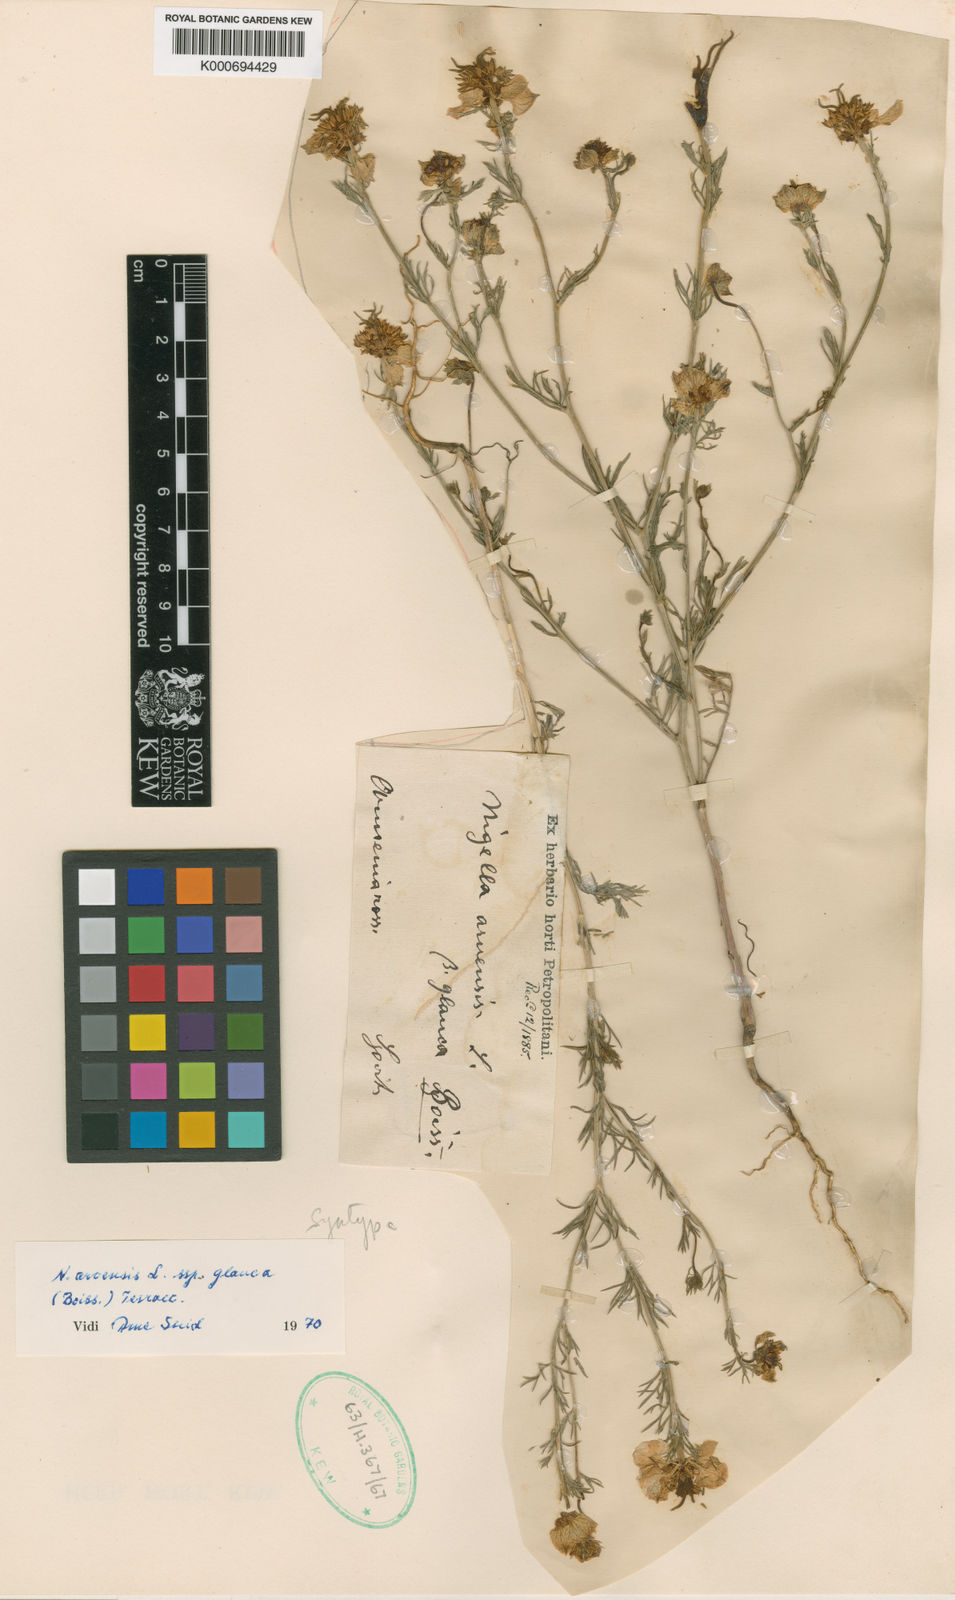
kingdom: Plantae
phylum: Tracheophyta
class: Magnoliopsida
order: Ranunculales
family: Ranunculaceae
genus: Nigella
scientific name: Nigella arvensis
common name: Wild fennel-flower
